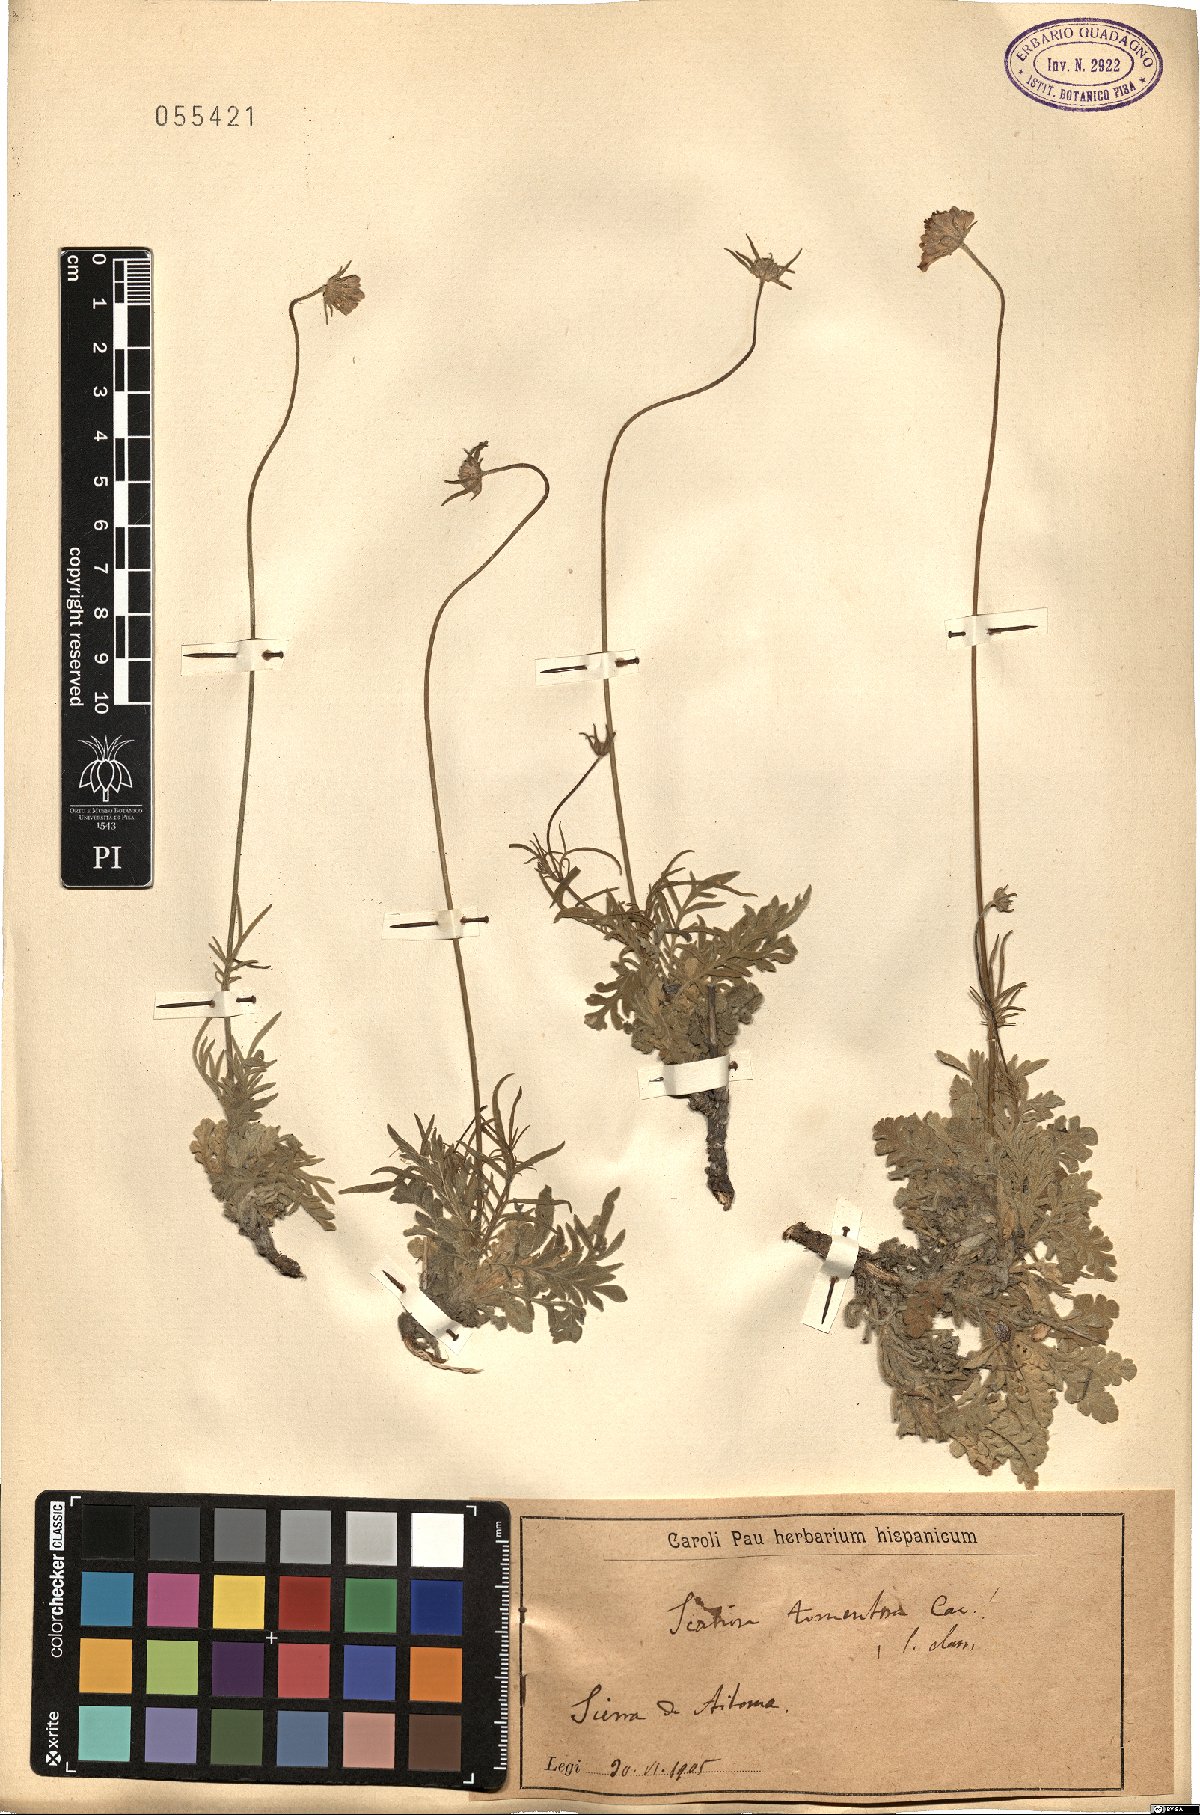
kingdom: Plantae
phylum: Tracheophyta
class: Magnoliopsida
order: Dipsacales
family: Caprifoliaceae
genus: Scabiosa
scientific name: Scabiosa turolensis
